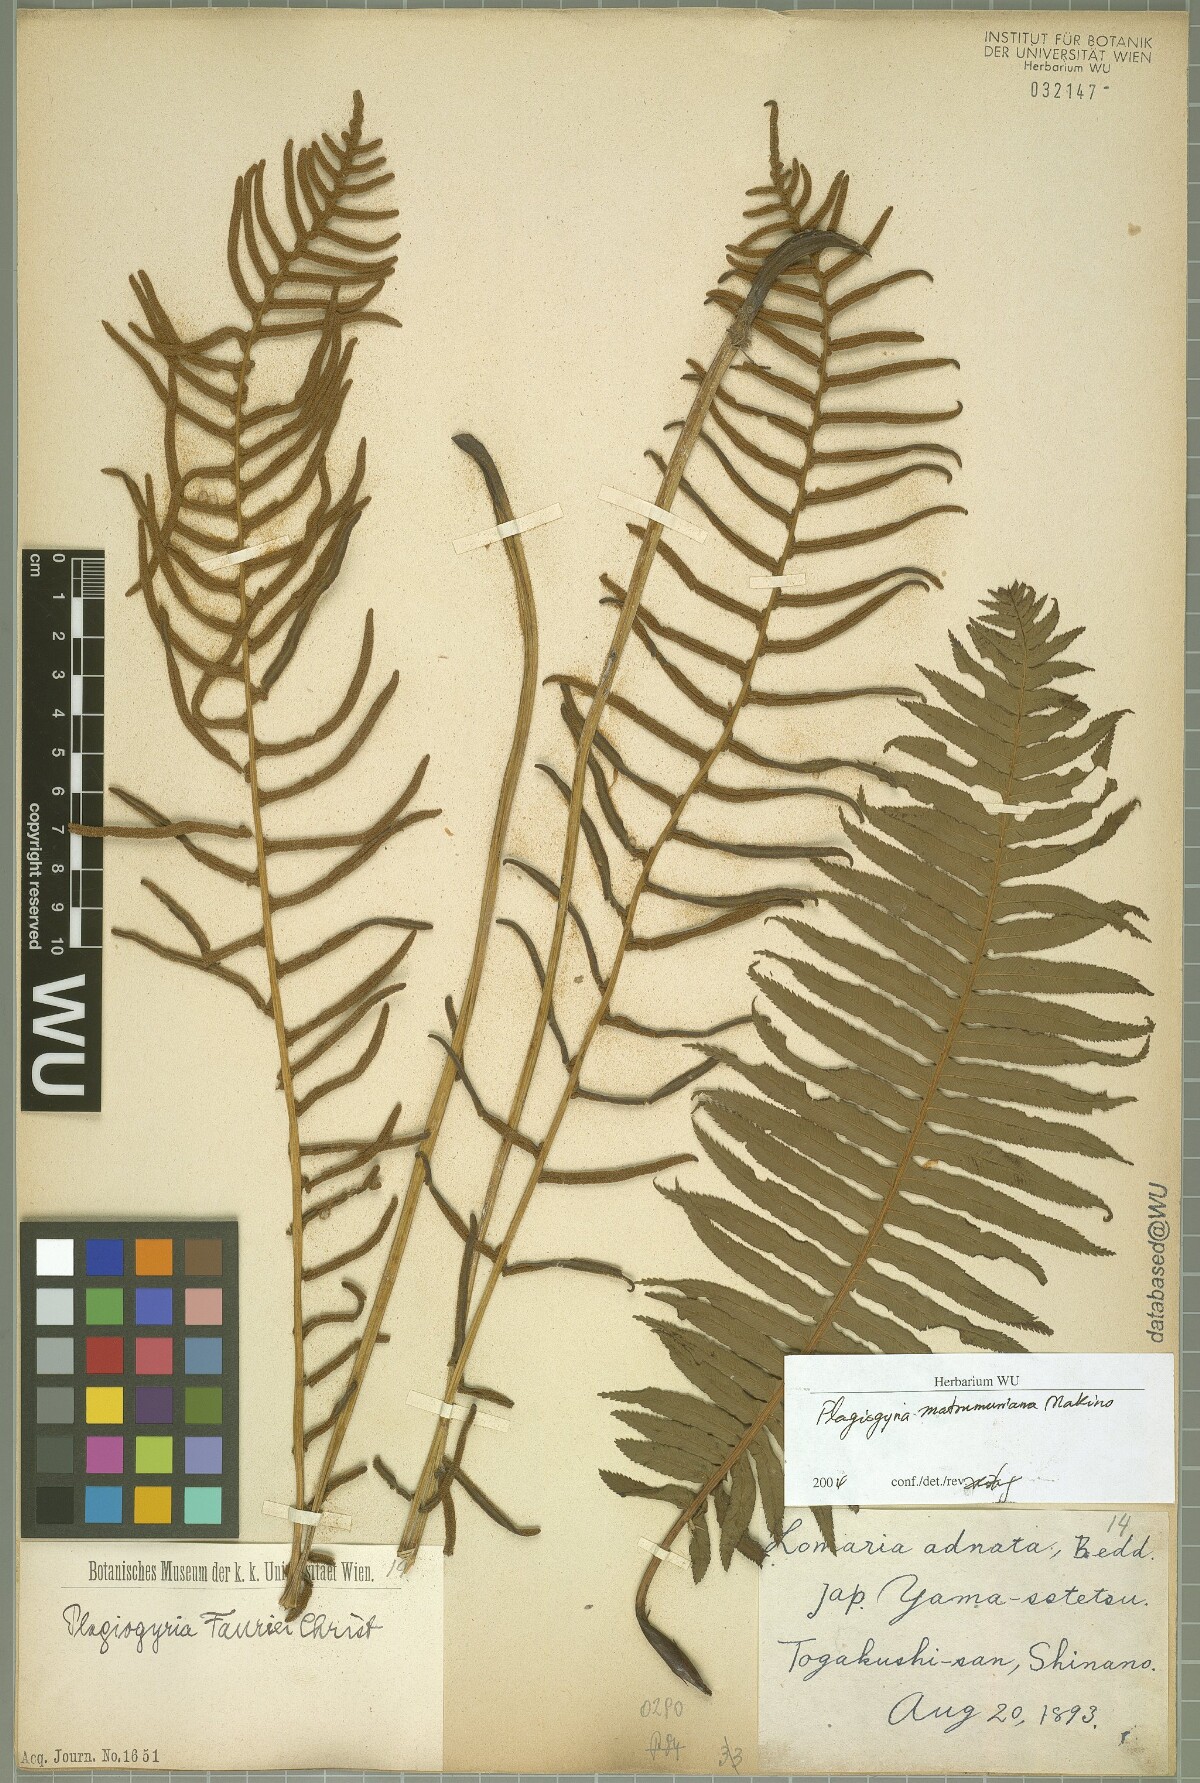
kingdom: Plantae
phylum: Tracheophyta
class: Polypodiopsida
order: Cyatheales
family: Plagiogyriaceae
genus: Plagiogyria
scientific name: Plagiogyria matsumureana
